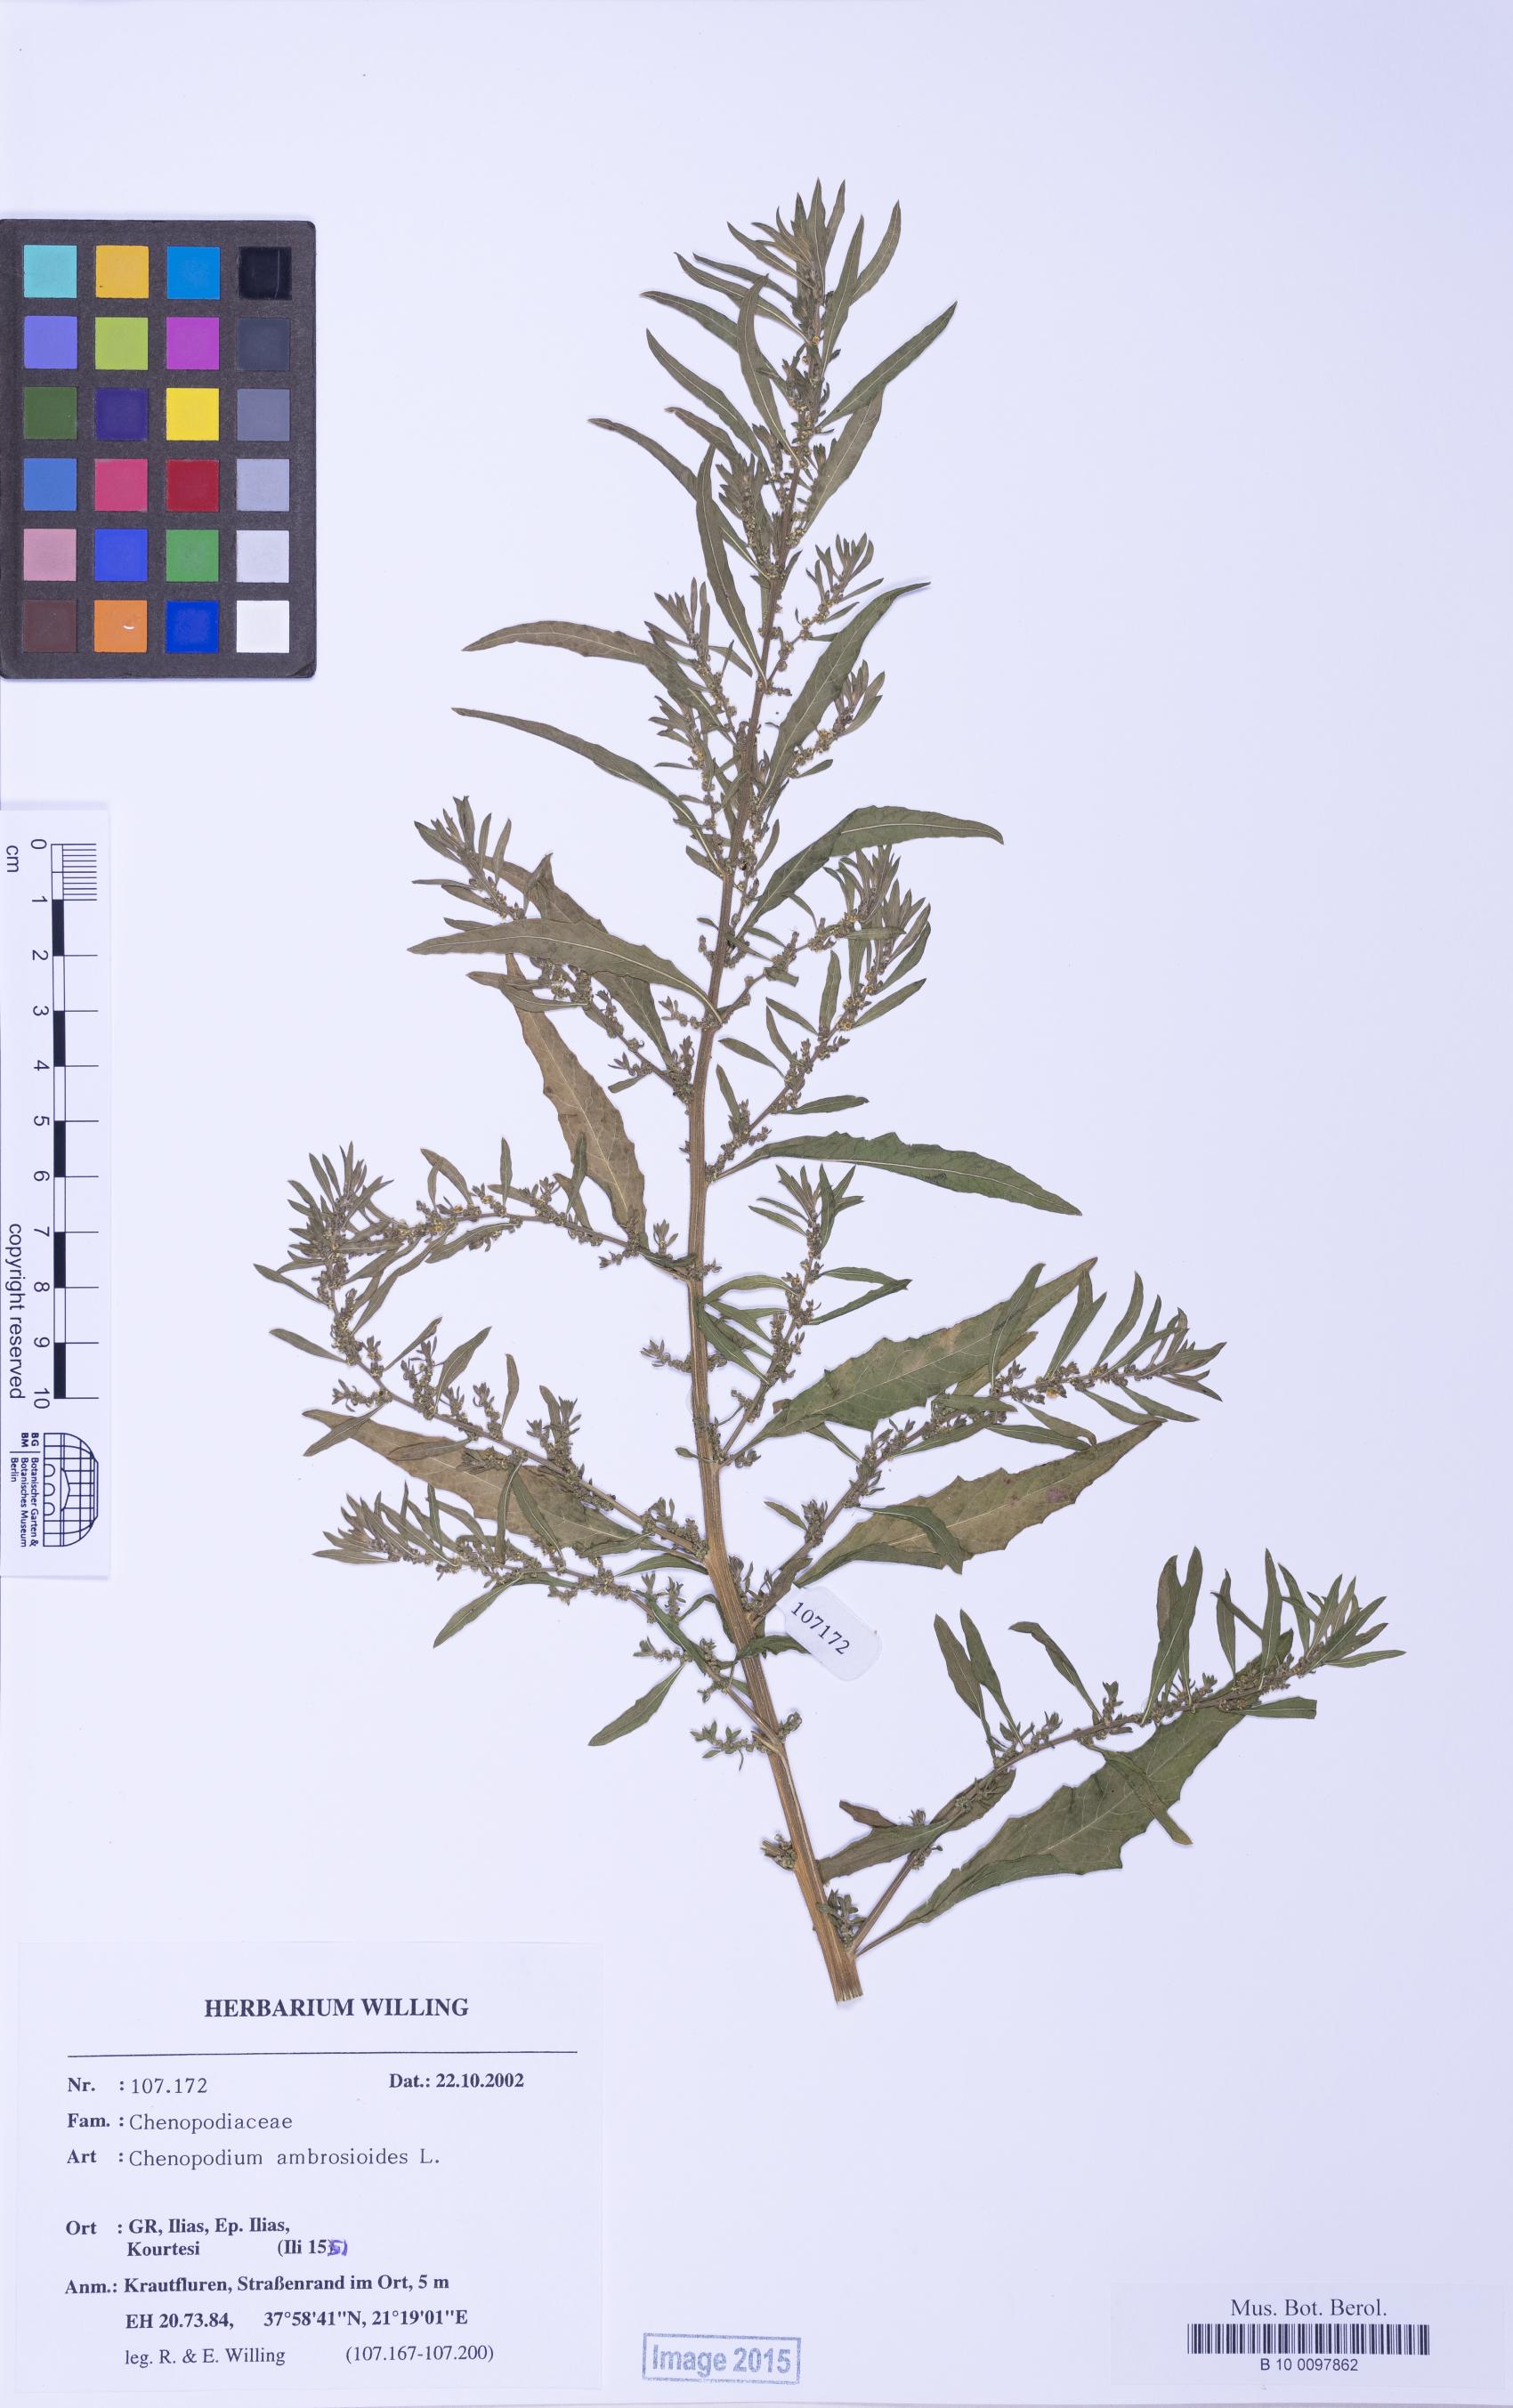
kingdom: Plantae
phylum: Tracheophyta
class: Magnoliopsida
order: Caryophyllales
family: Amaranthaceae
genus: Dysphania
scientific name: Dysphania ambrosioides
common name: Wormseed
